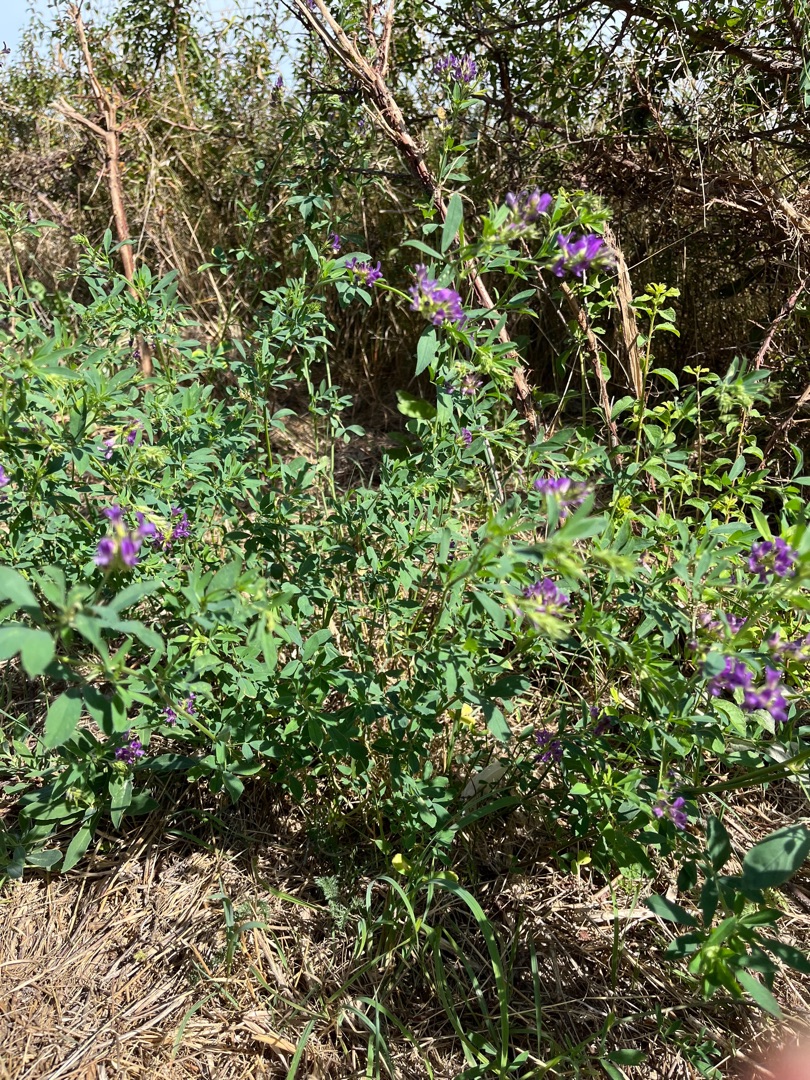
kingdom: Plantae
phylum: Tracheophyta
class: Magnoliopsida
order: Fabales
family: Fabaceae
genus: Medicago
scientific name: Medicago sativa
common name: Lucerne
